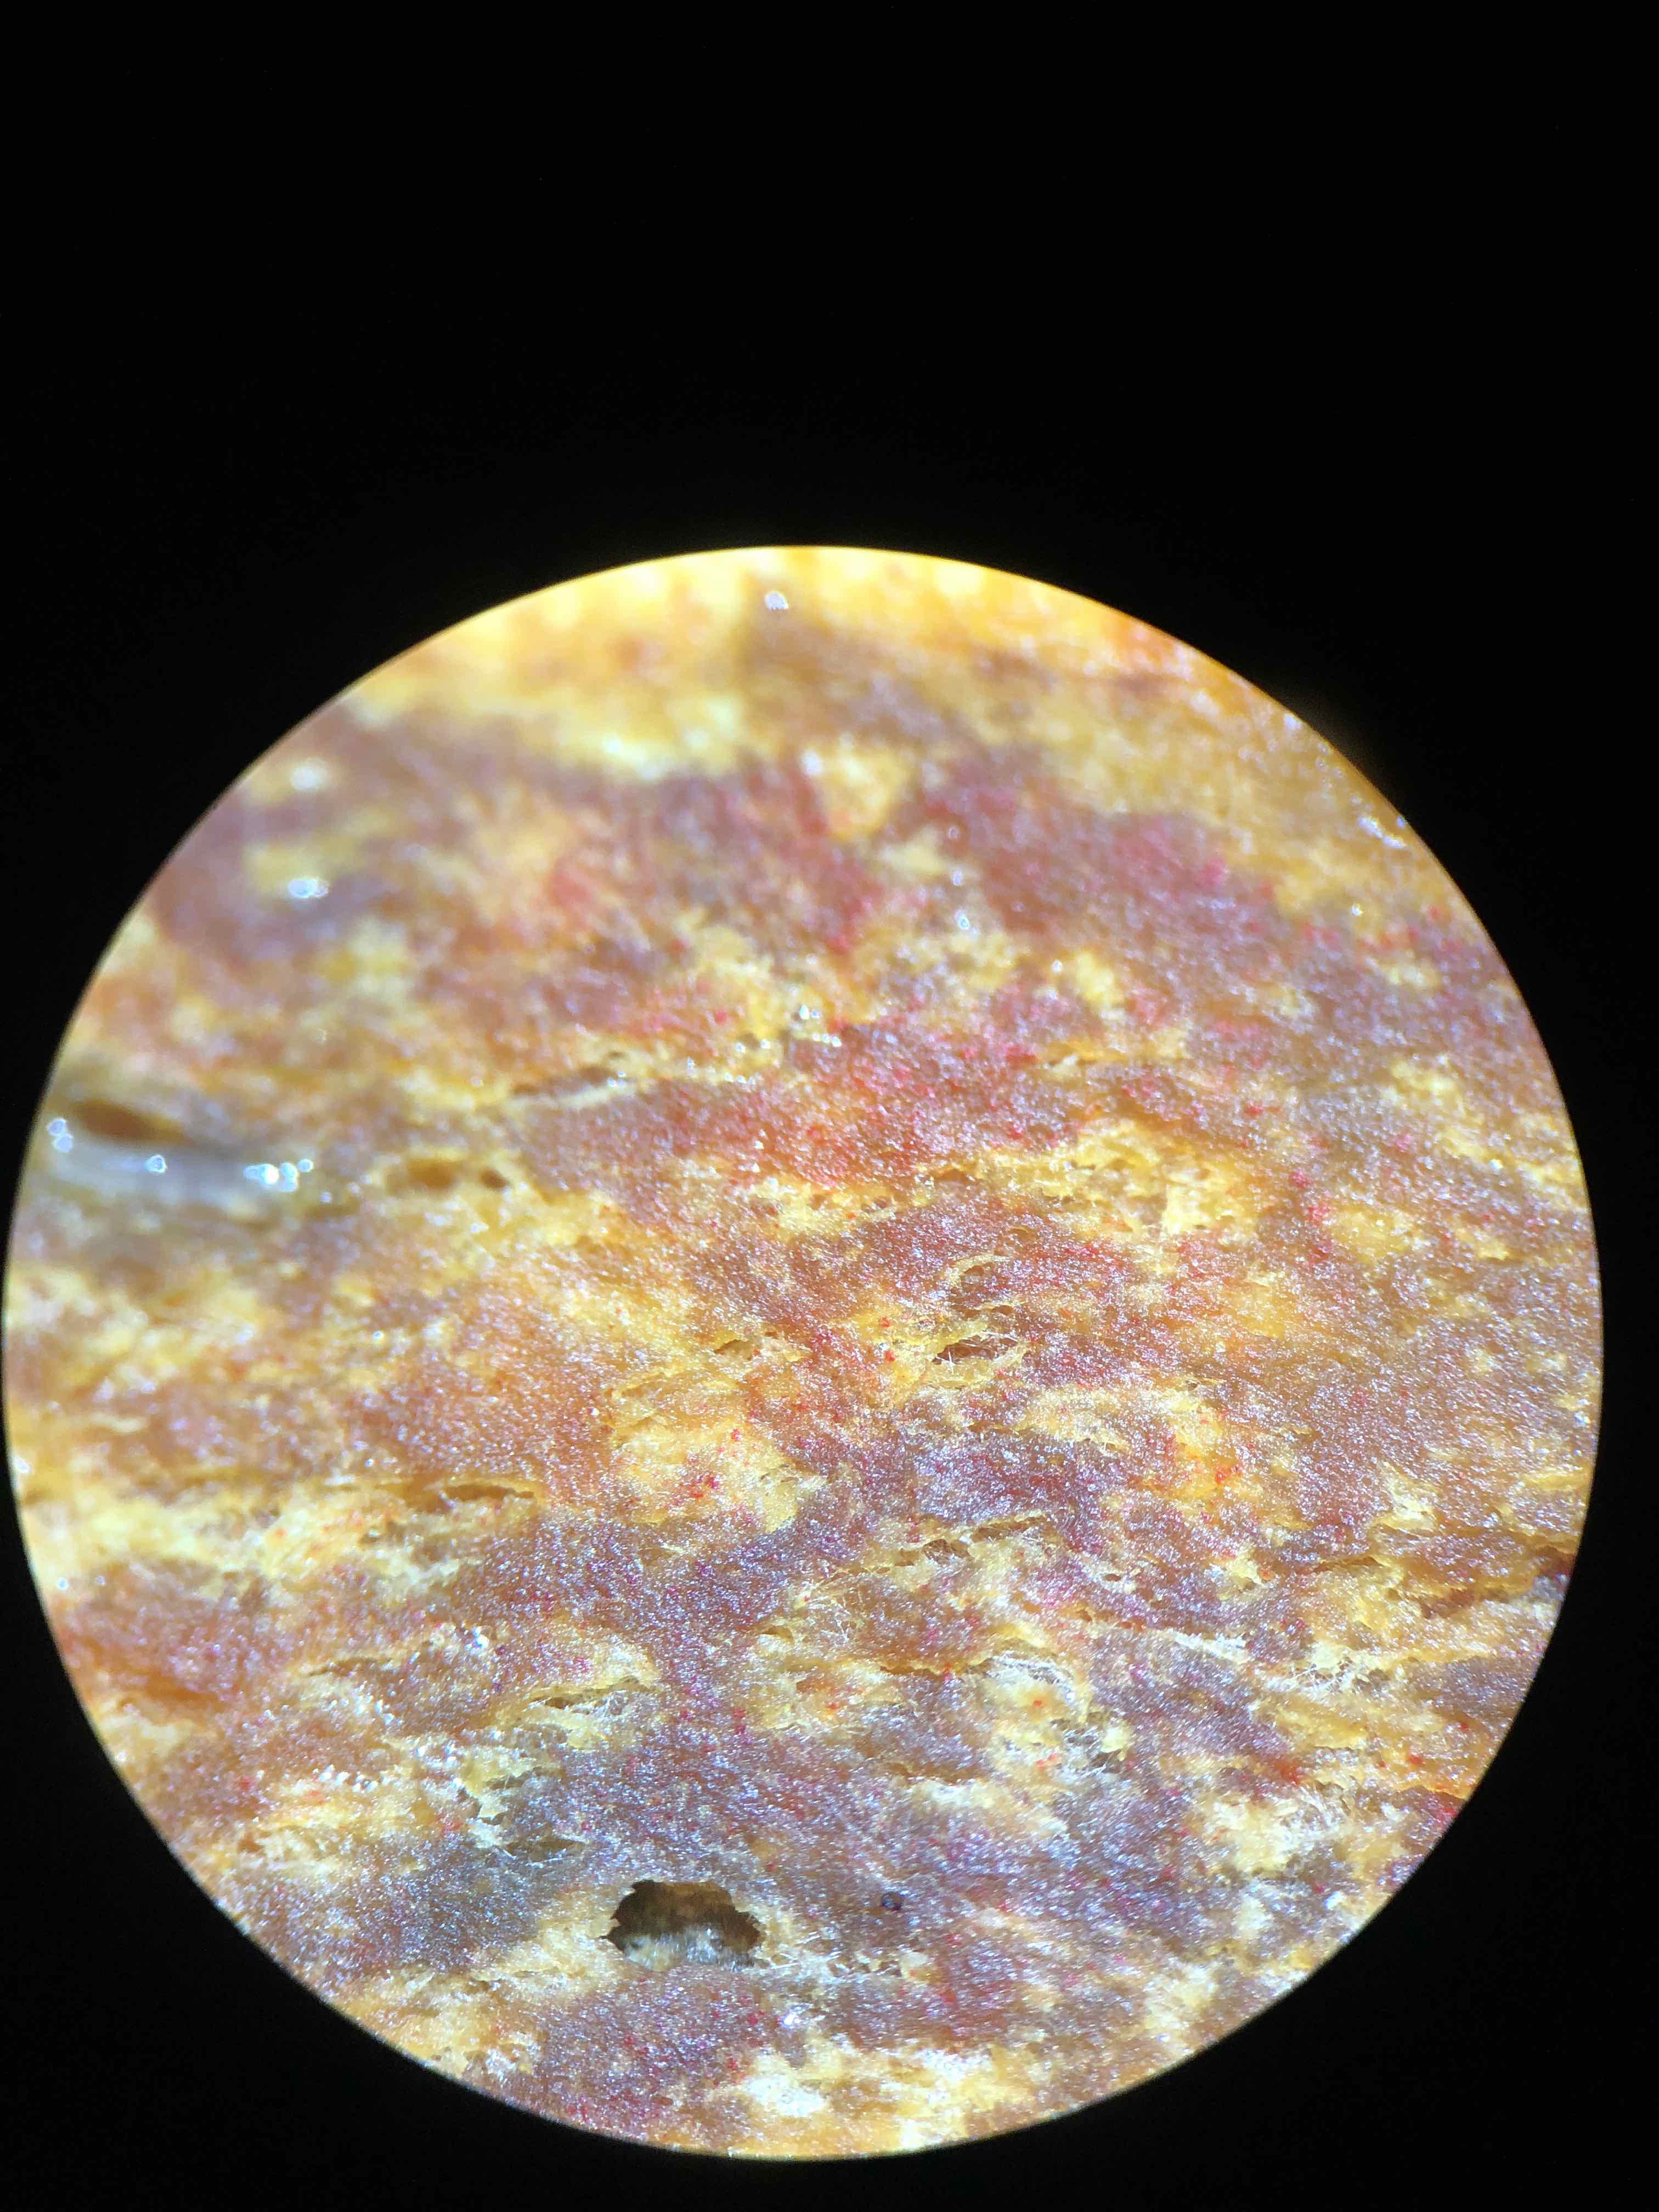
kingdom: Fungi
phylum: Basidiomycota
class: Agaricomycetes
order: Boletales
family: Boletaceae
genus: Hortiboletus
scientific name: Hortiboletus rubellus
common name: blodrød rørhat
